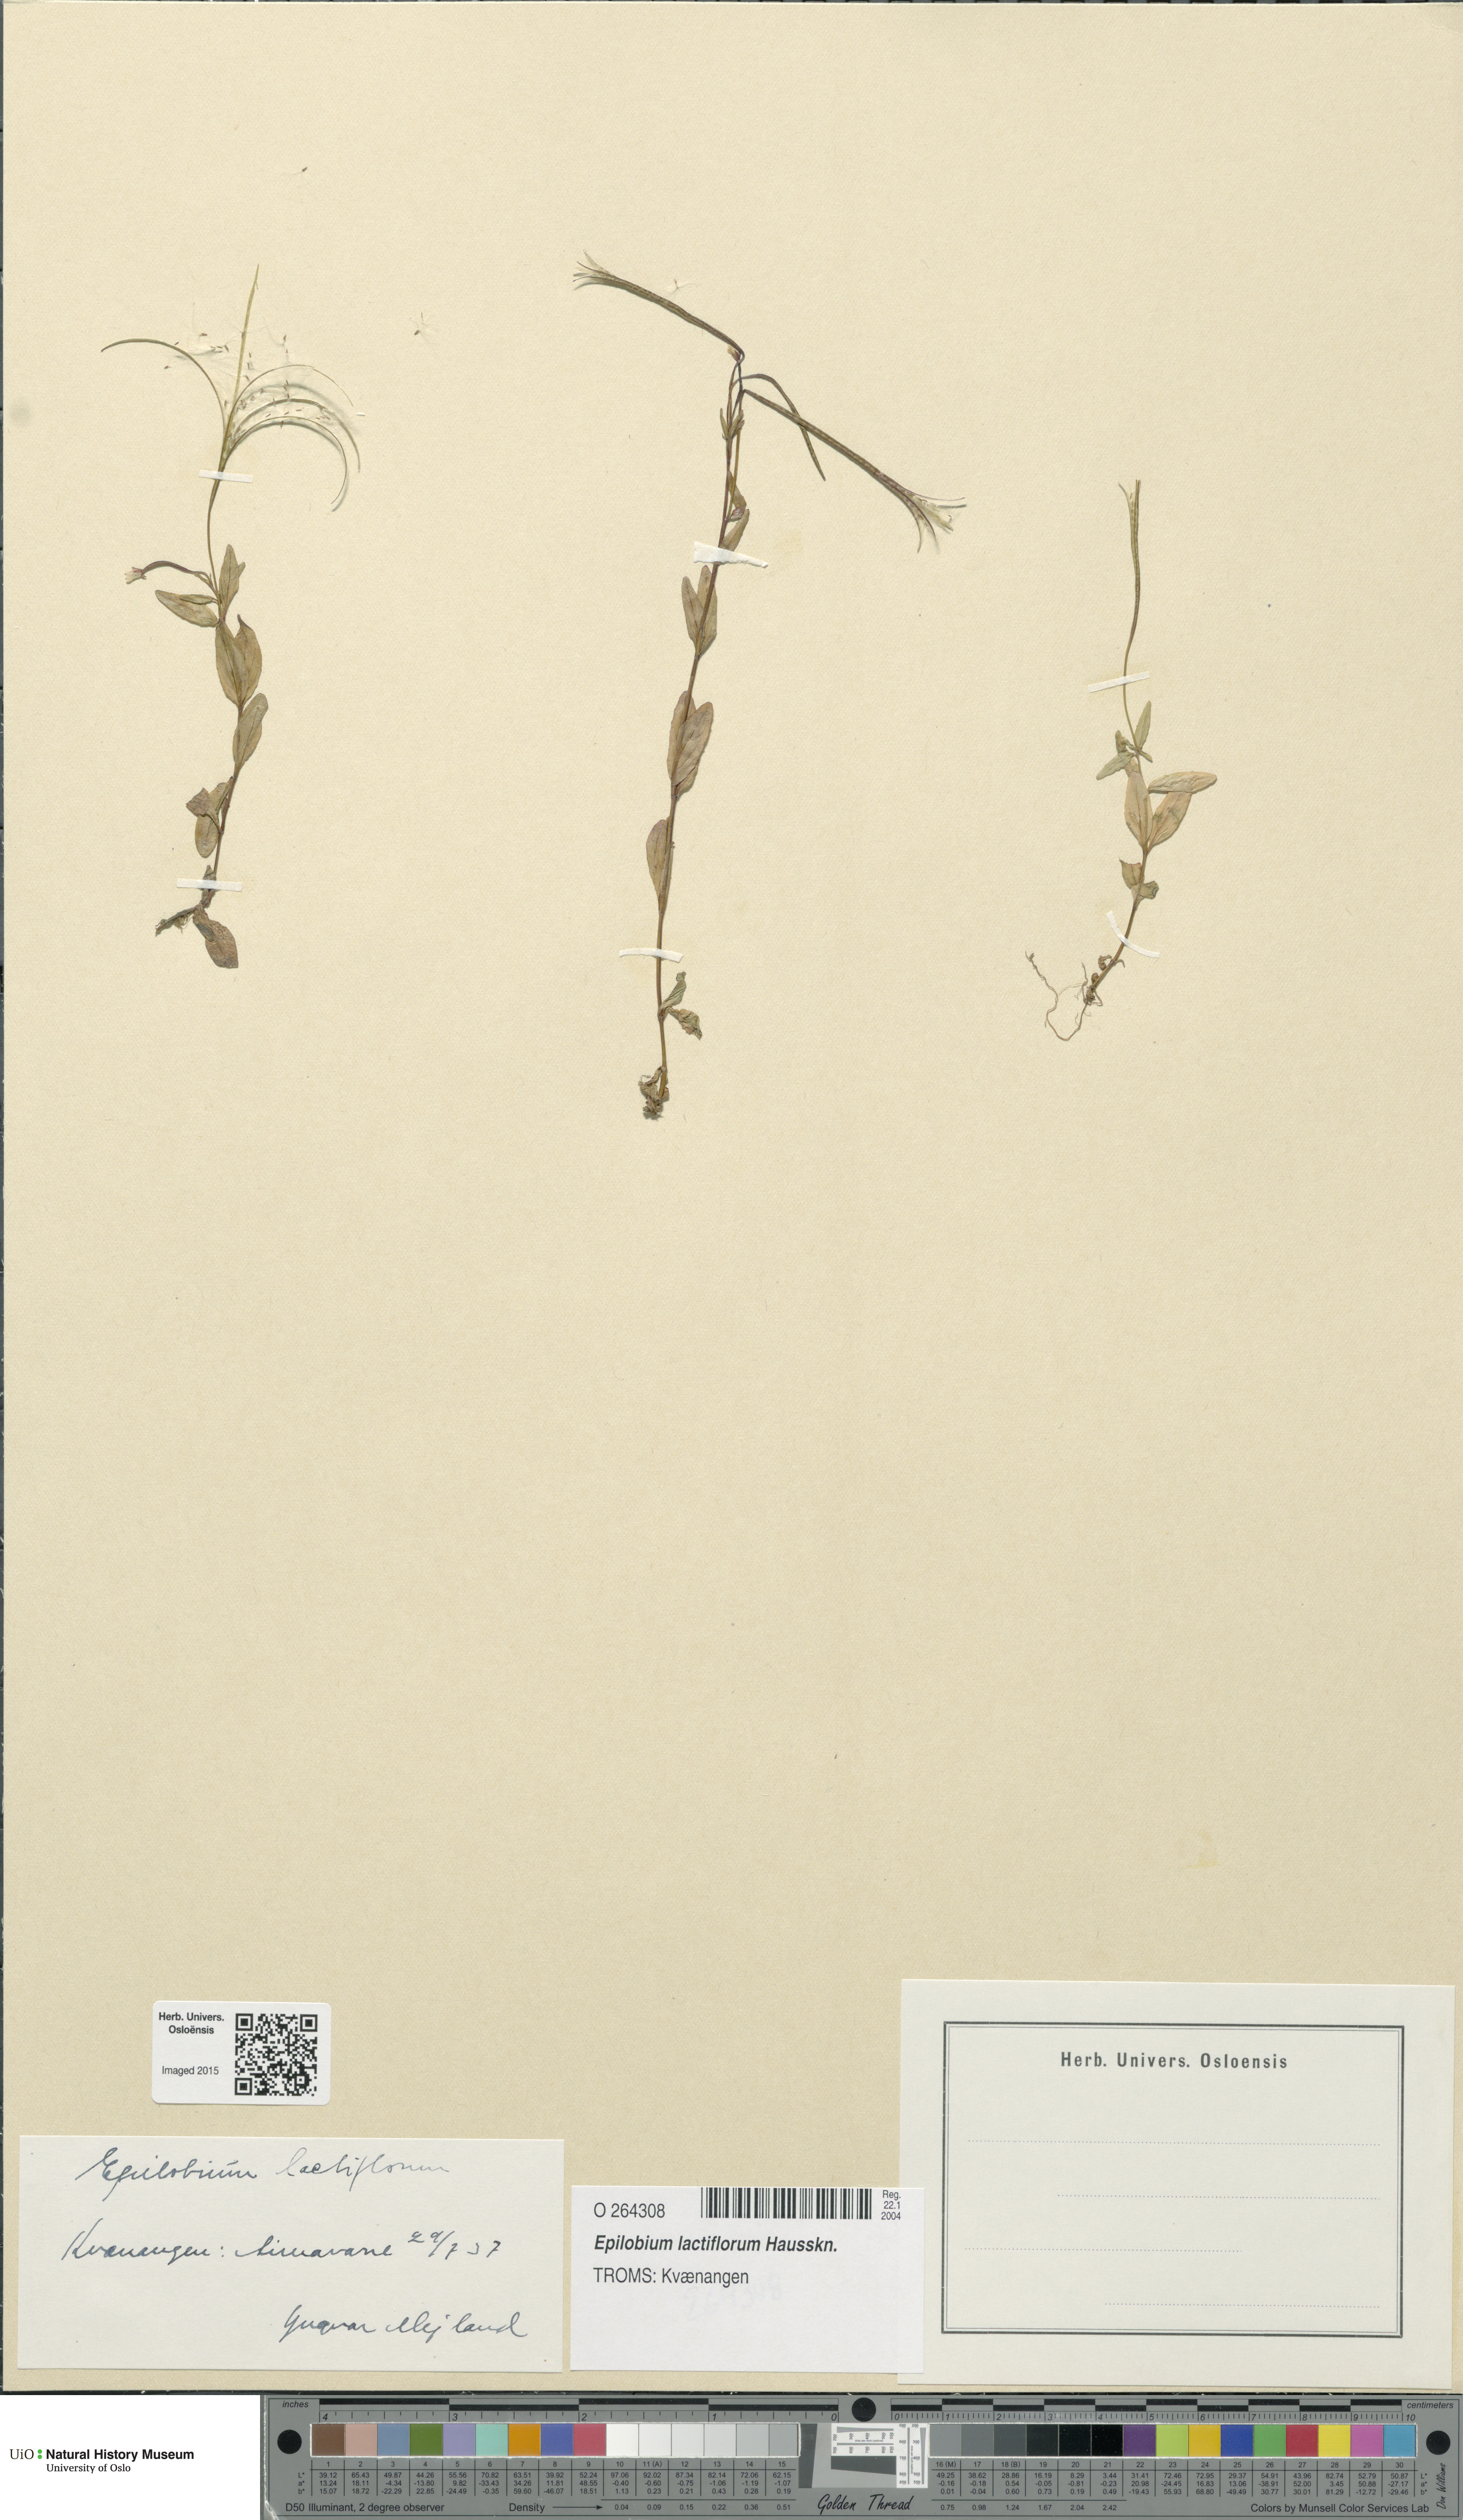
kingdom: Plantae
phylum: Tracheophyta
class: Magnoliopsida
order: Myrtales
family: Onagraceae
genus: Epilobium
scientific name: Epilobium lactiflorum
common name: Milkflower willowherb
